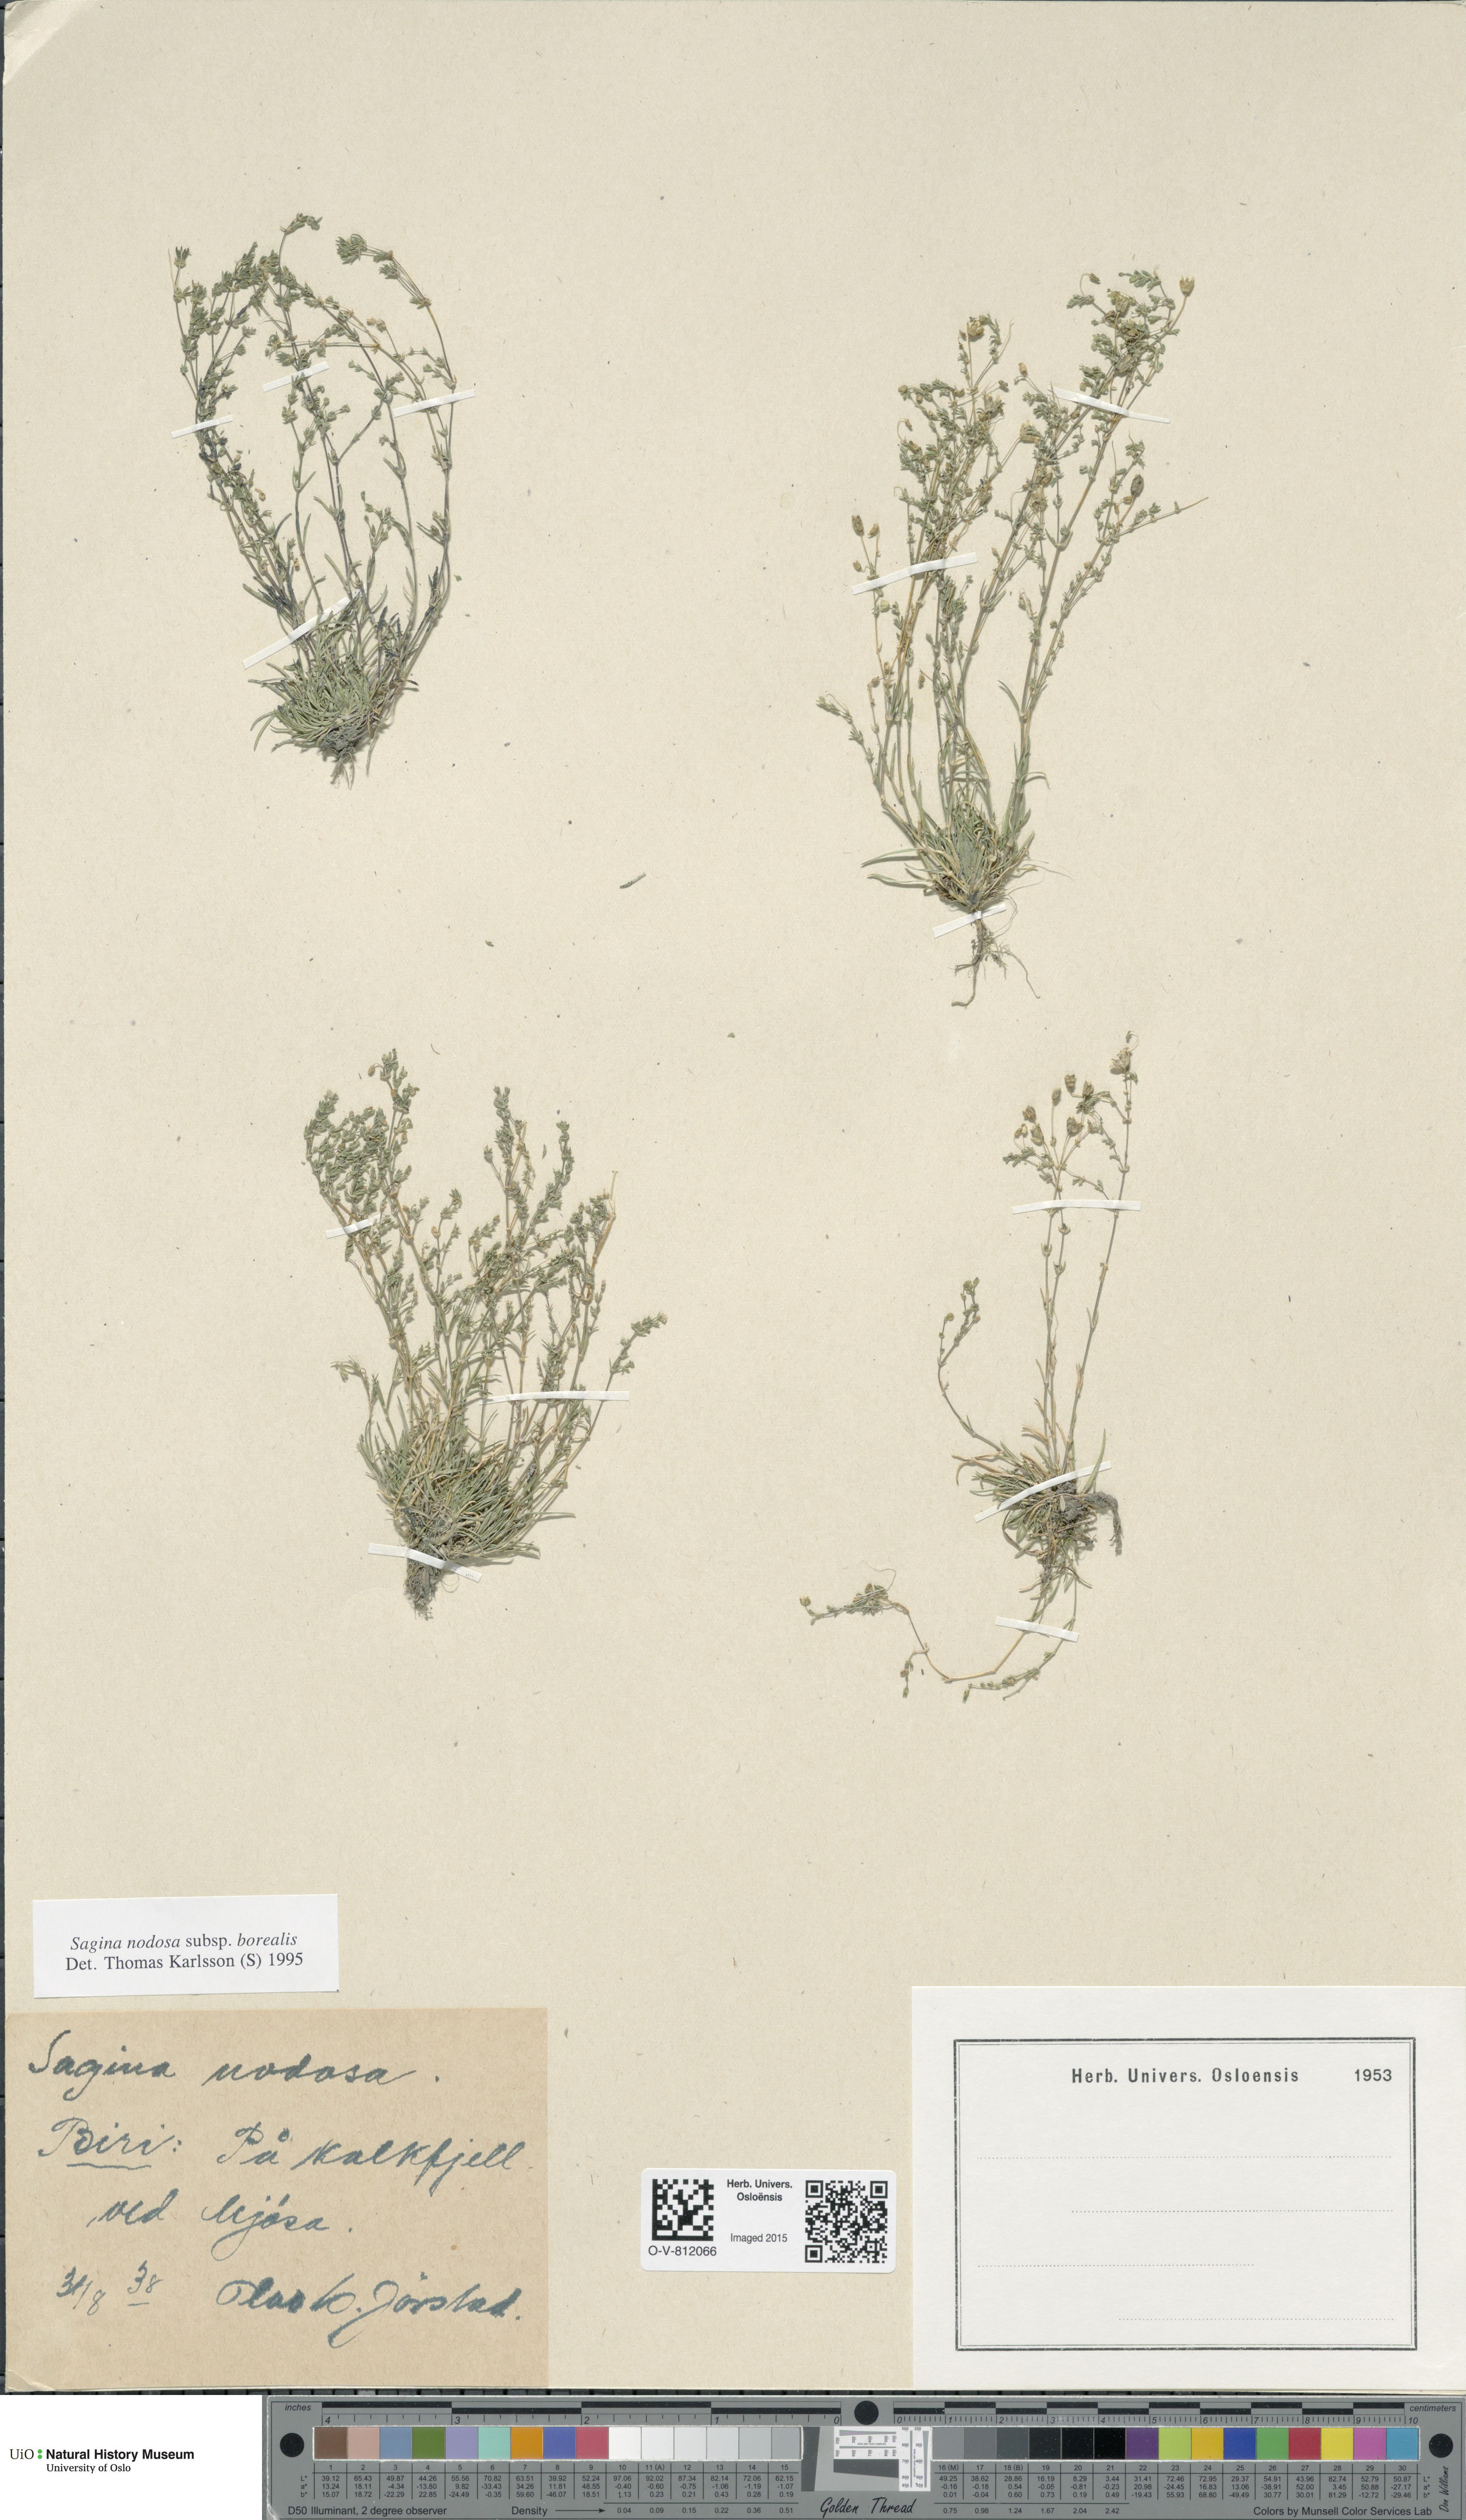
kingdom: Plantae
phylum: Tracheophyta
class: Magnoliopsida
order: Caryophyllales
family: Caryophyllaceae
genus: Sagina
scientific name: Sagina nodosa
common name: Knotted pearlwort
